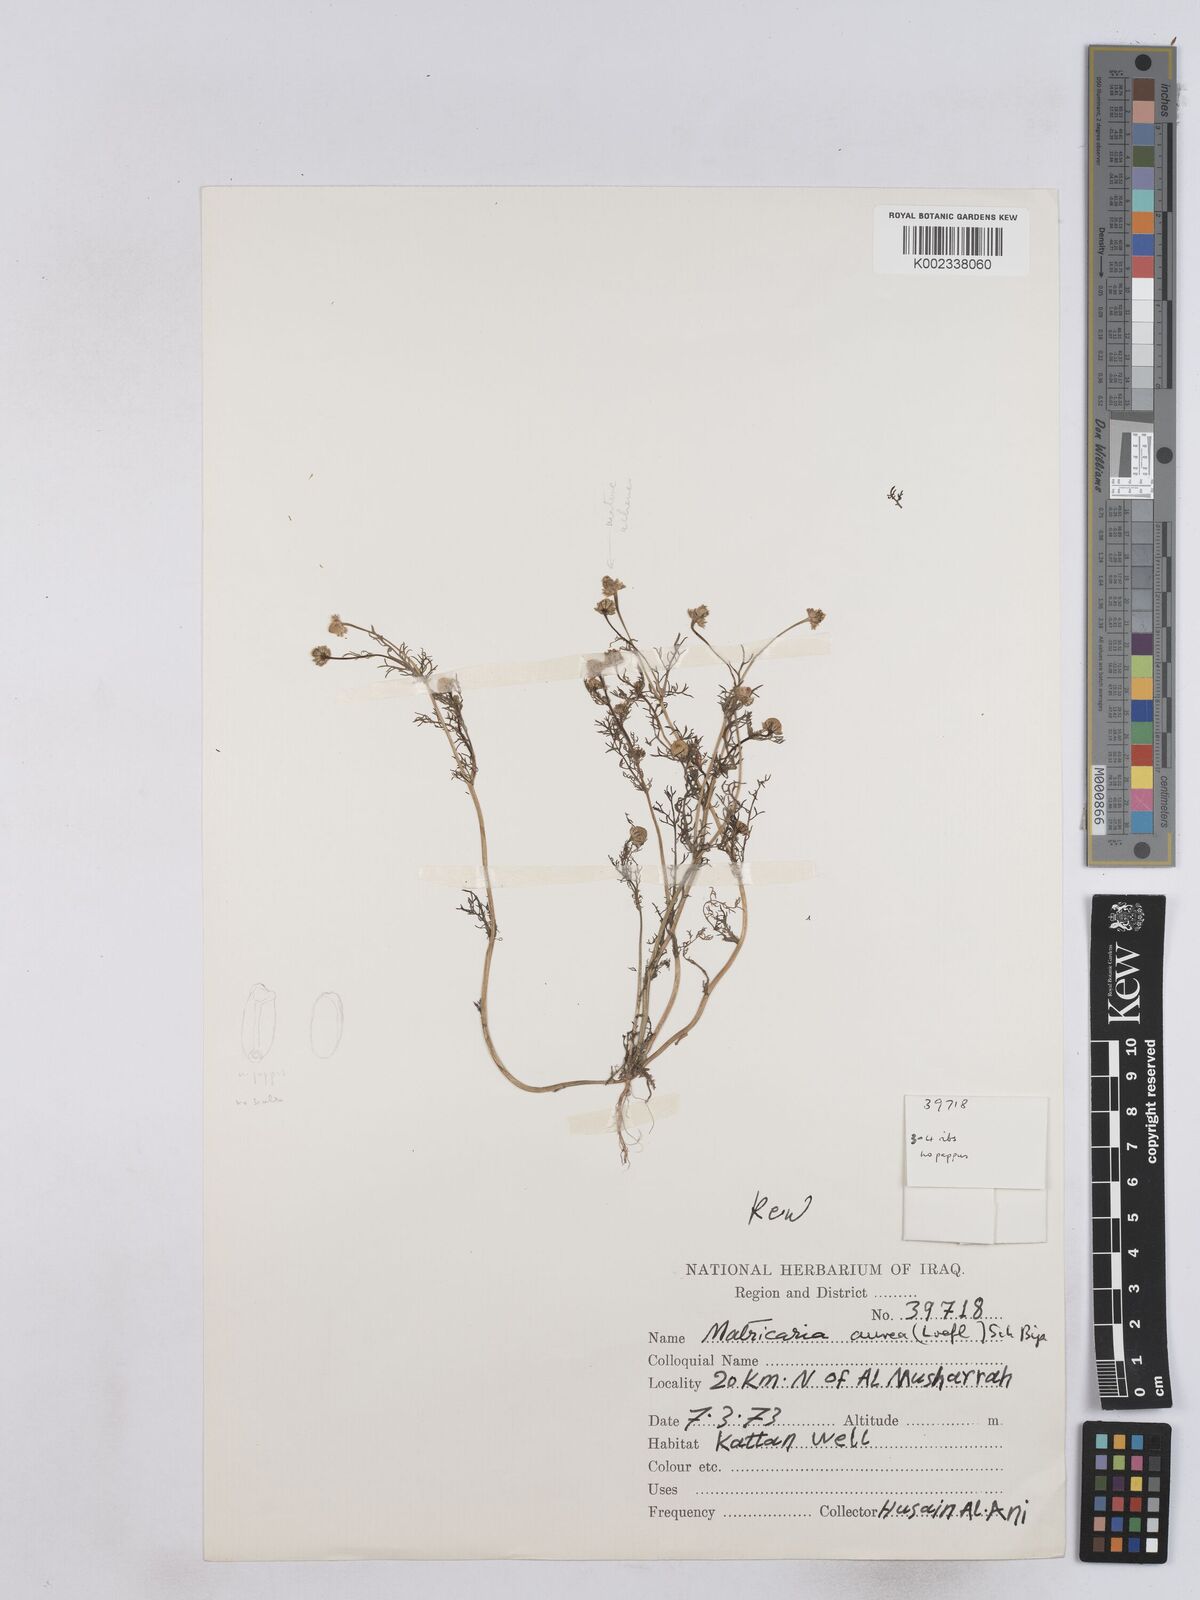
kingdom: Plantae
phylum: Tracheophyta
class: Magnoliopsida
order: Asterales
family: Asteraceae
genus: Matricaria
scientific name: Matricaria aurea
